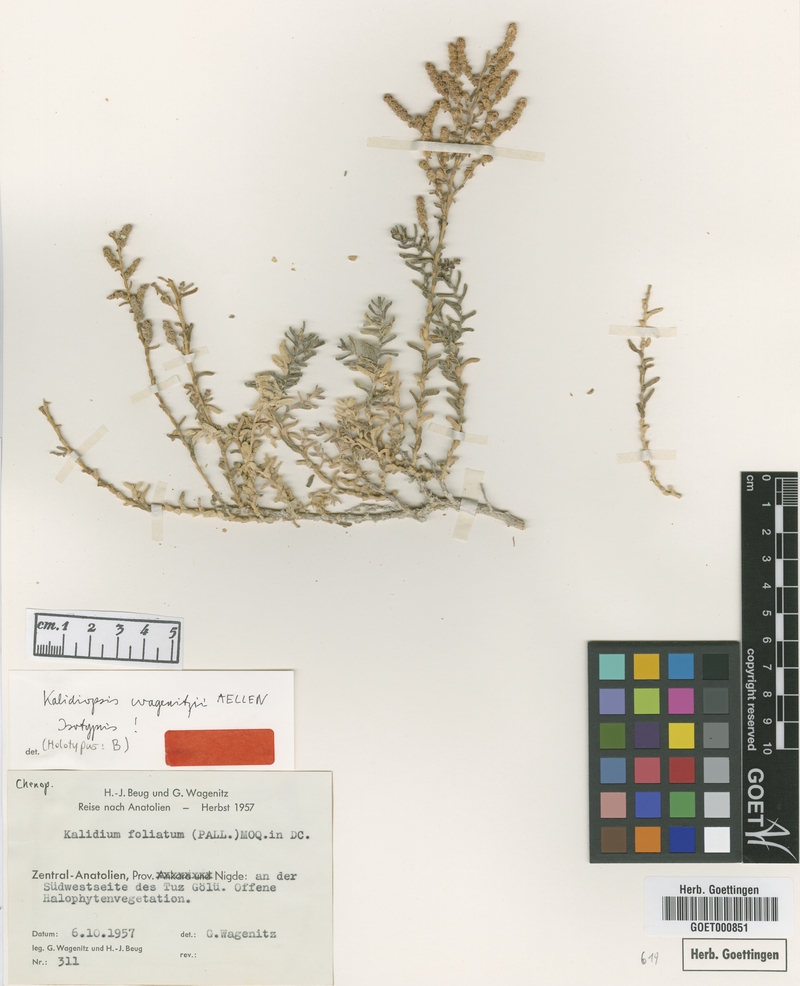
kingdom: Plantae
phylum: Tracheophyta
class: Magnoliopsida
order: Caryophyllales
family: Amaranthaceae
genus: Kalidium
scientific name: Kalidium wagenitzii
